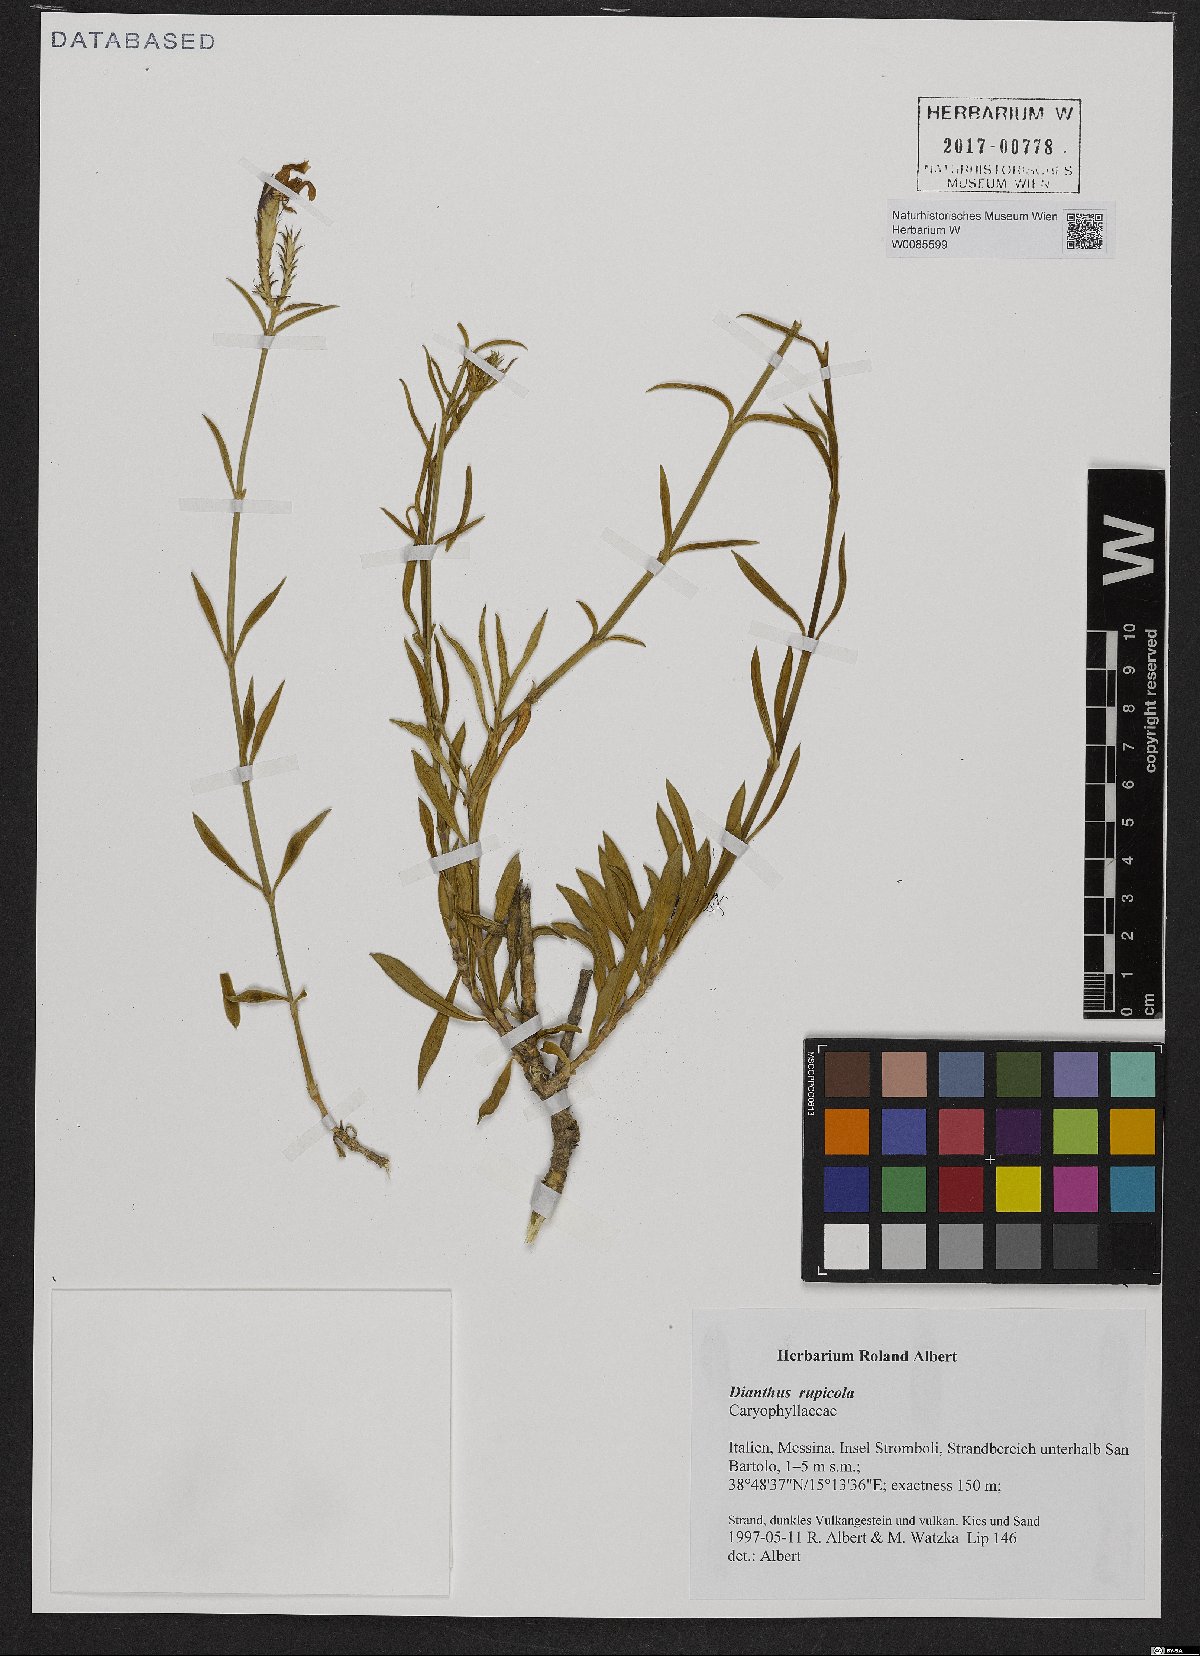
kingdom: Plantae
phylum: Tracheophyta
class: Magnoliopsida
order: Caryophyllales
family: Caryophyllaceae
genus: Dianthus
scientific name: Dianthus rupicola
